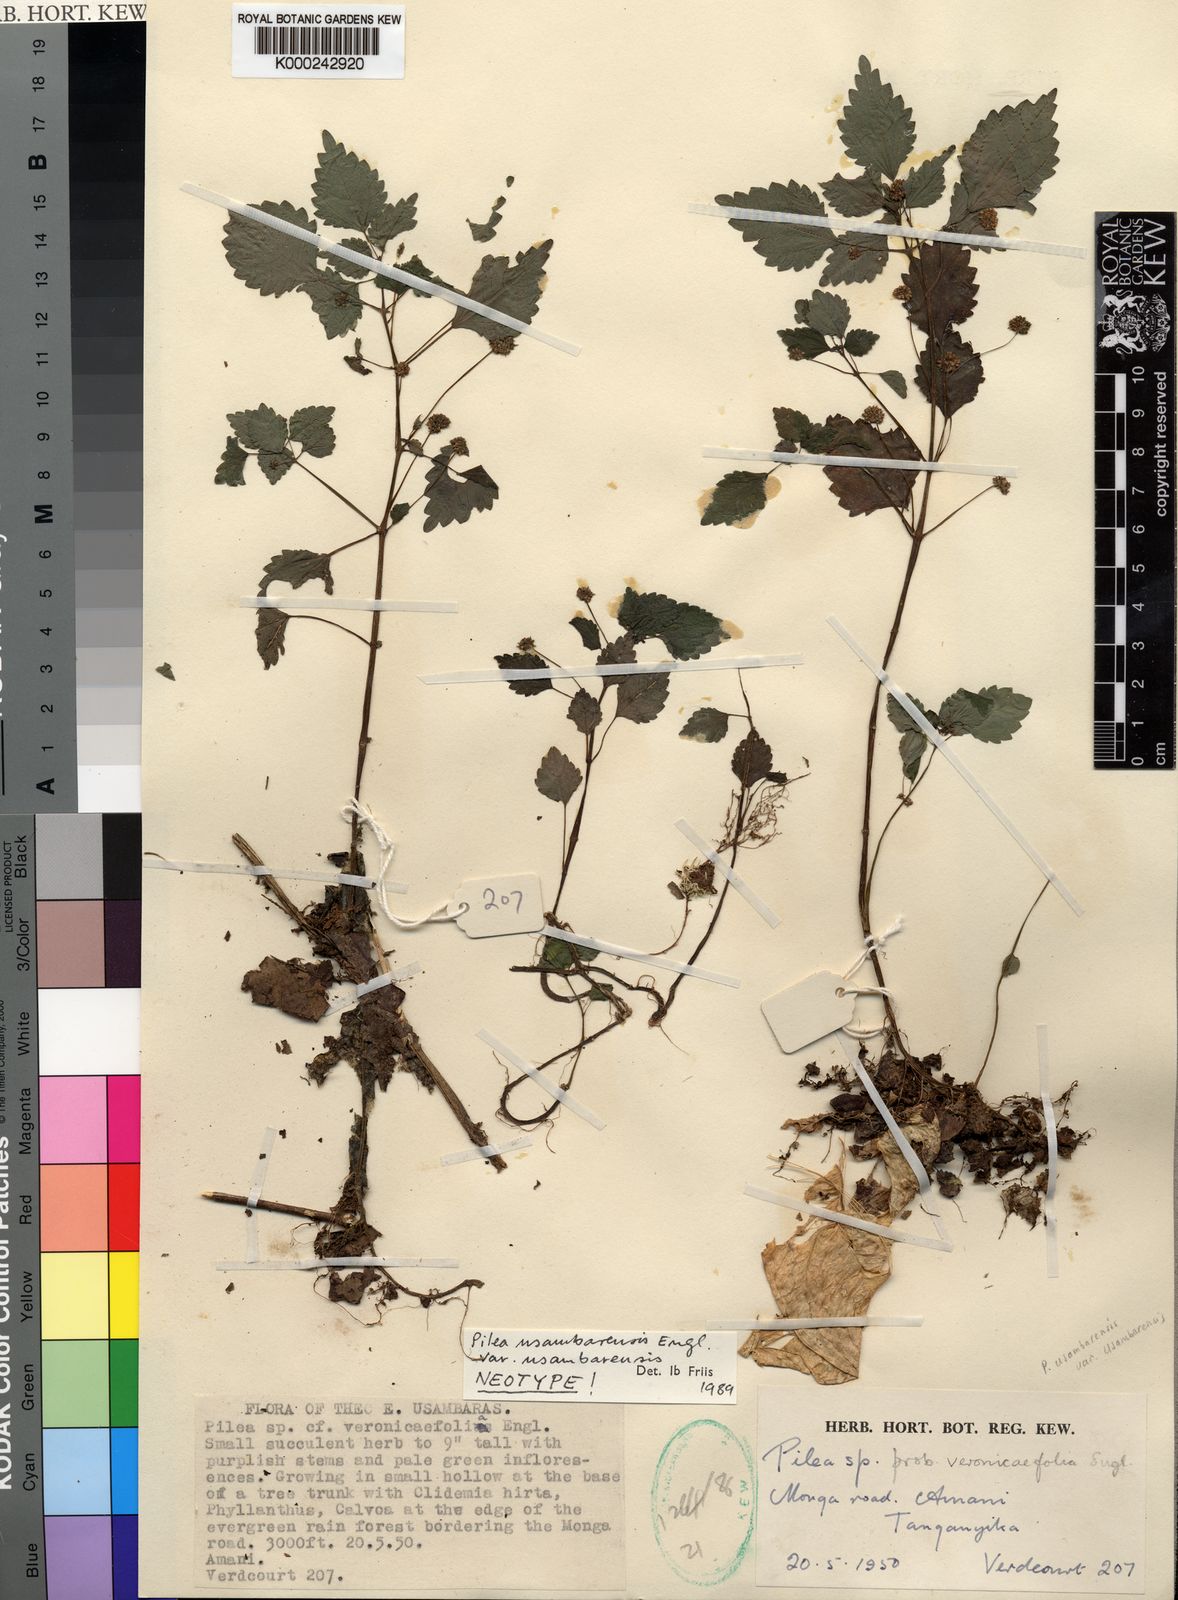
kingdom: Plantae
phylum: Tracheophyta
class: Magnoliopsida
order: Rosales
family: Urticaceae
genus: Pilea
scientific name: Pilea usambarensis
